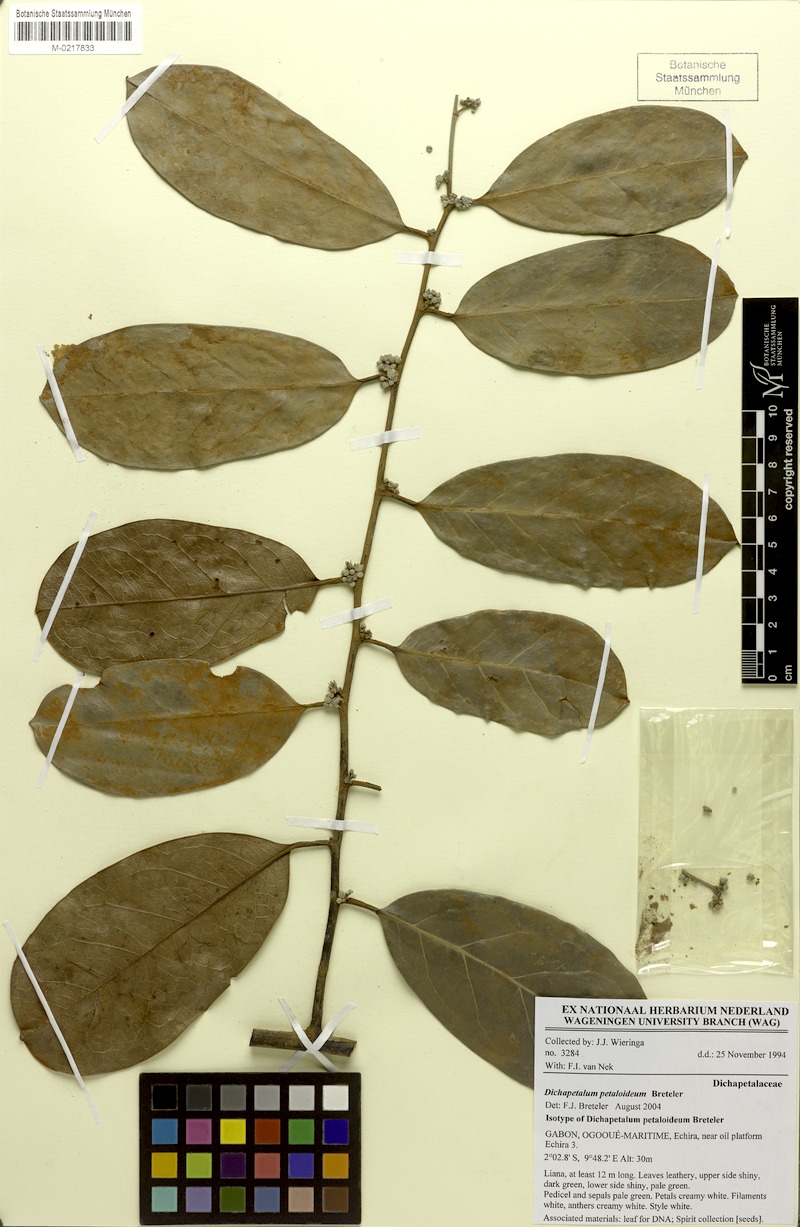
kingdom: Plantae
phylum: Tracheophyta
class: Magnoliopsida
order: Malpighiales
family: Dichapetalaceae
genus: Dichapetalum
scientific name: Dichapetalum petaloideum
